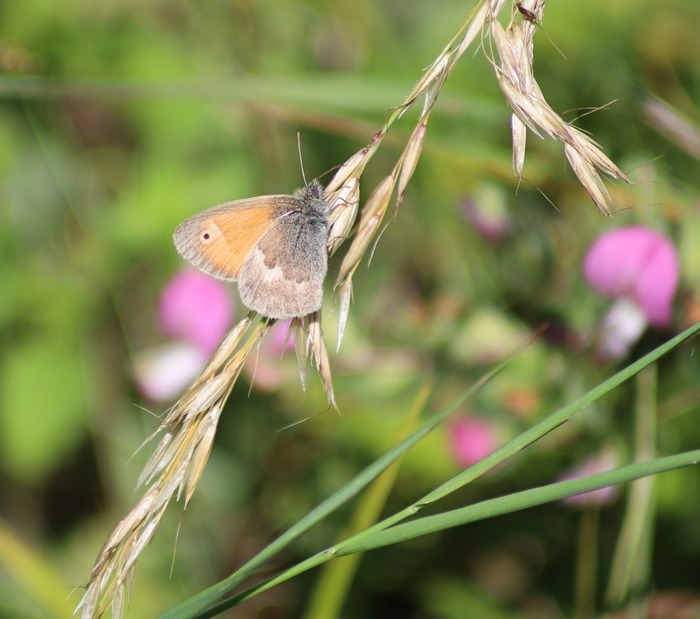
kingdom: Animalia
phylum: Arthropoda
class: Insecta
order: Lepidoptera
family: Nymphalidae
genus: Coenonympha
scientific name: Coenonympha pamphilus
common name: Okkergul randøje
